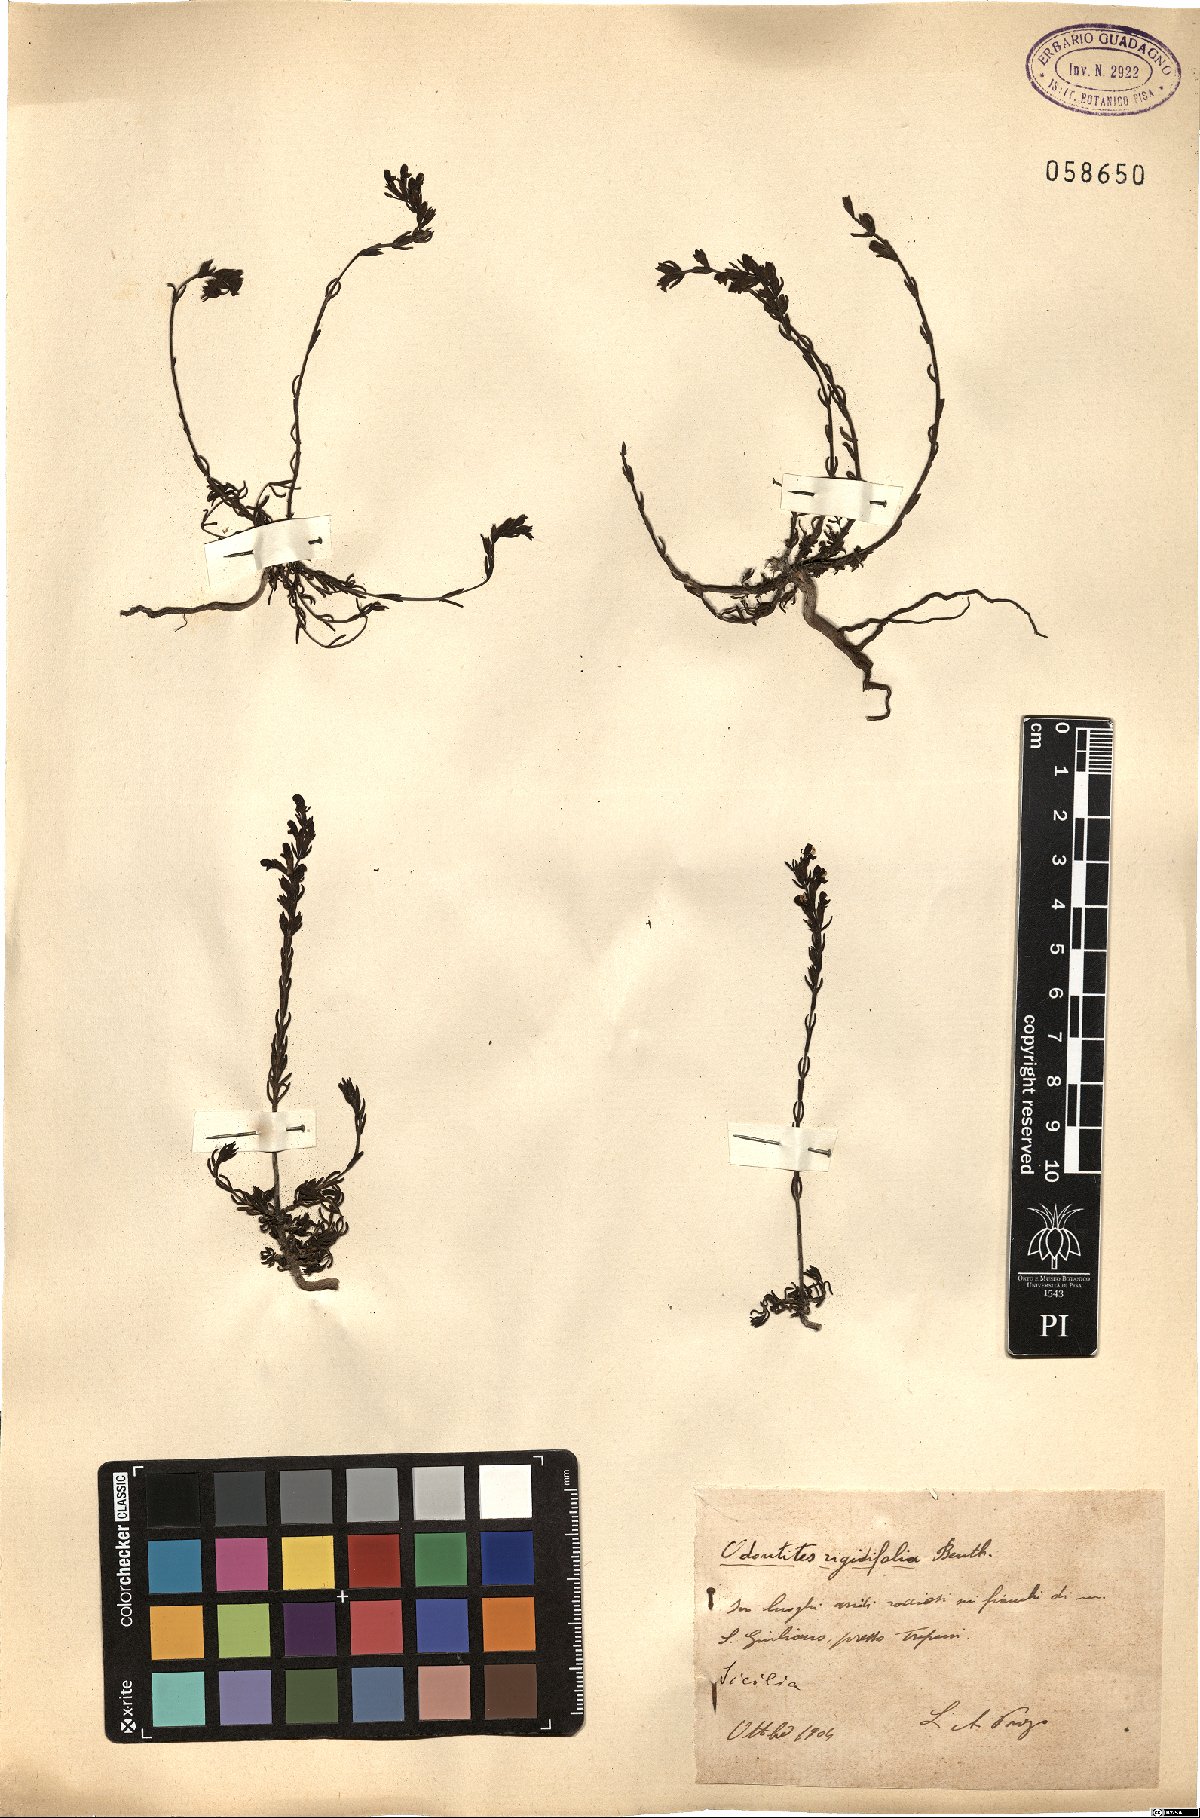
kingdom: Plantae
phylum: Tracheophyta
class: Magnoliopsida
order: Lamiales
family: Orobanchaceae
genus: Odontites
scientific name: Odontites rigidifolius
